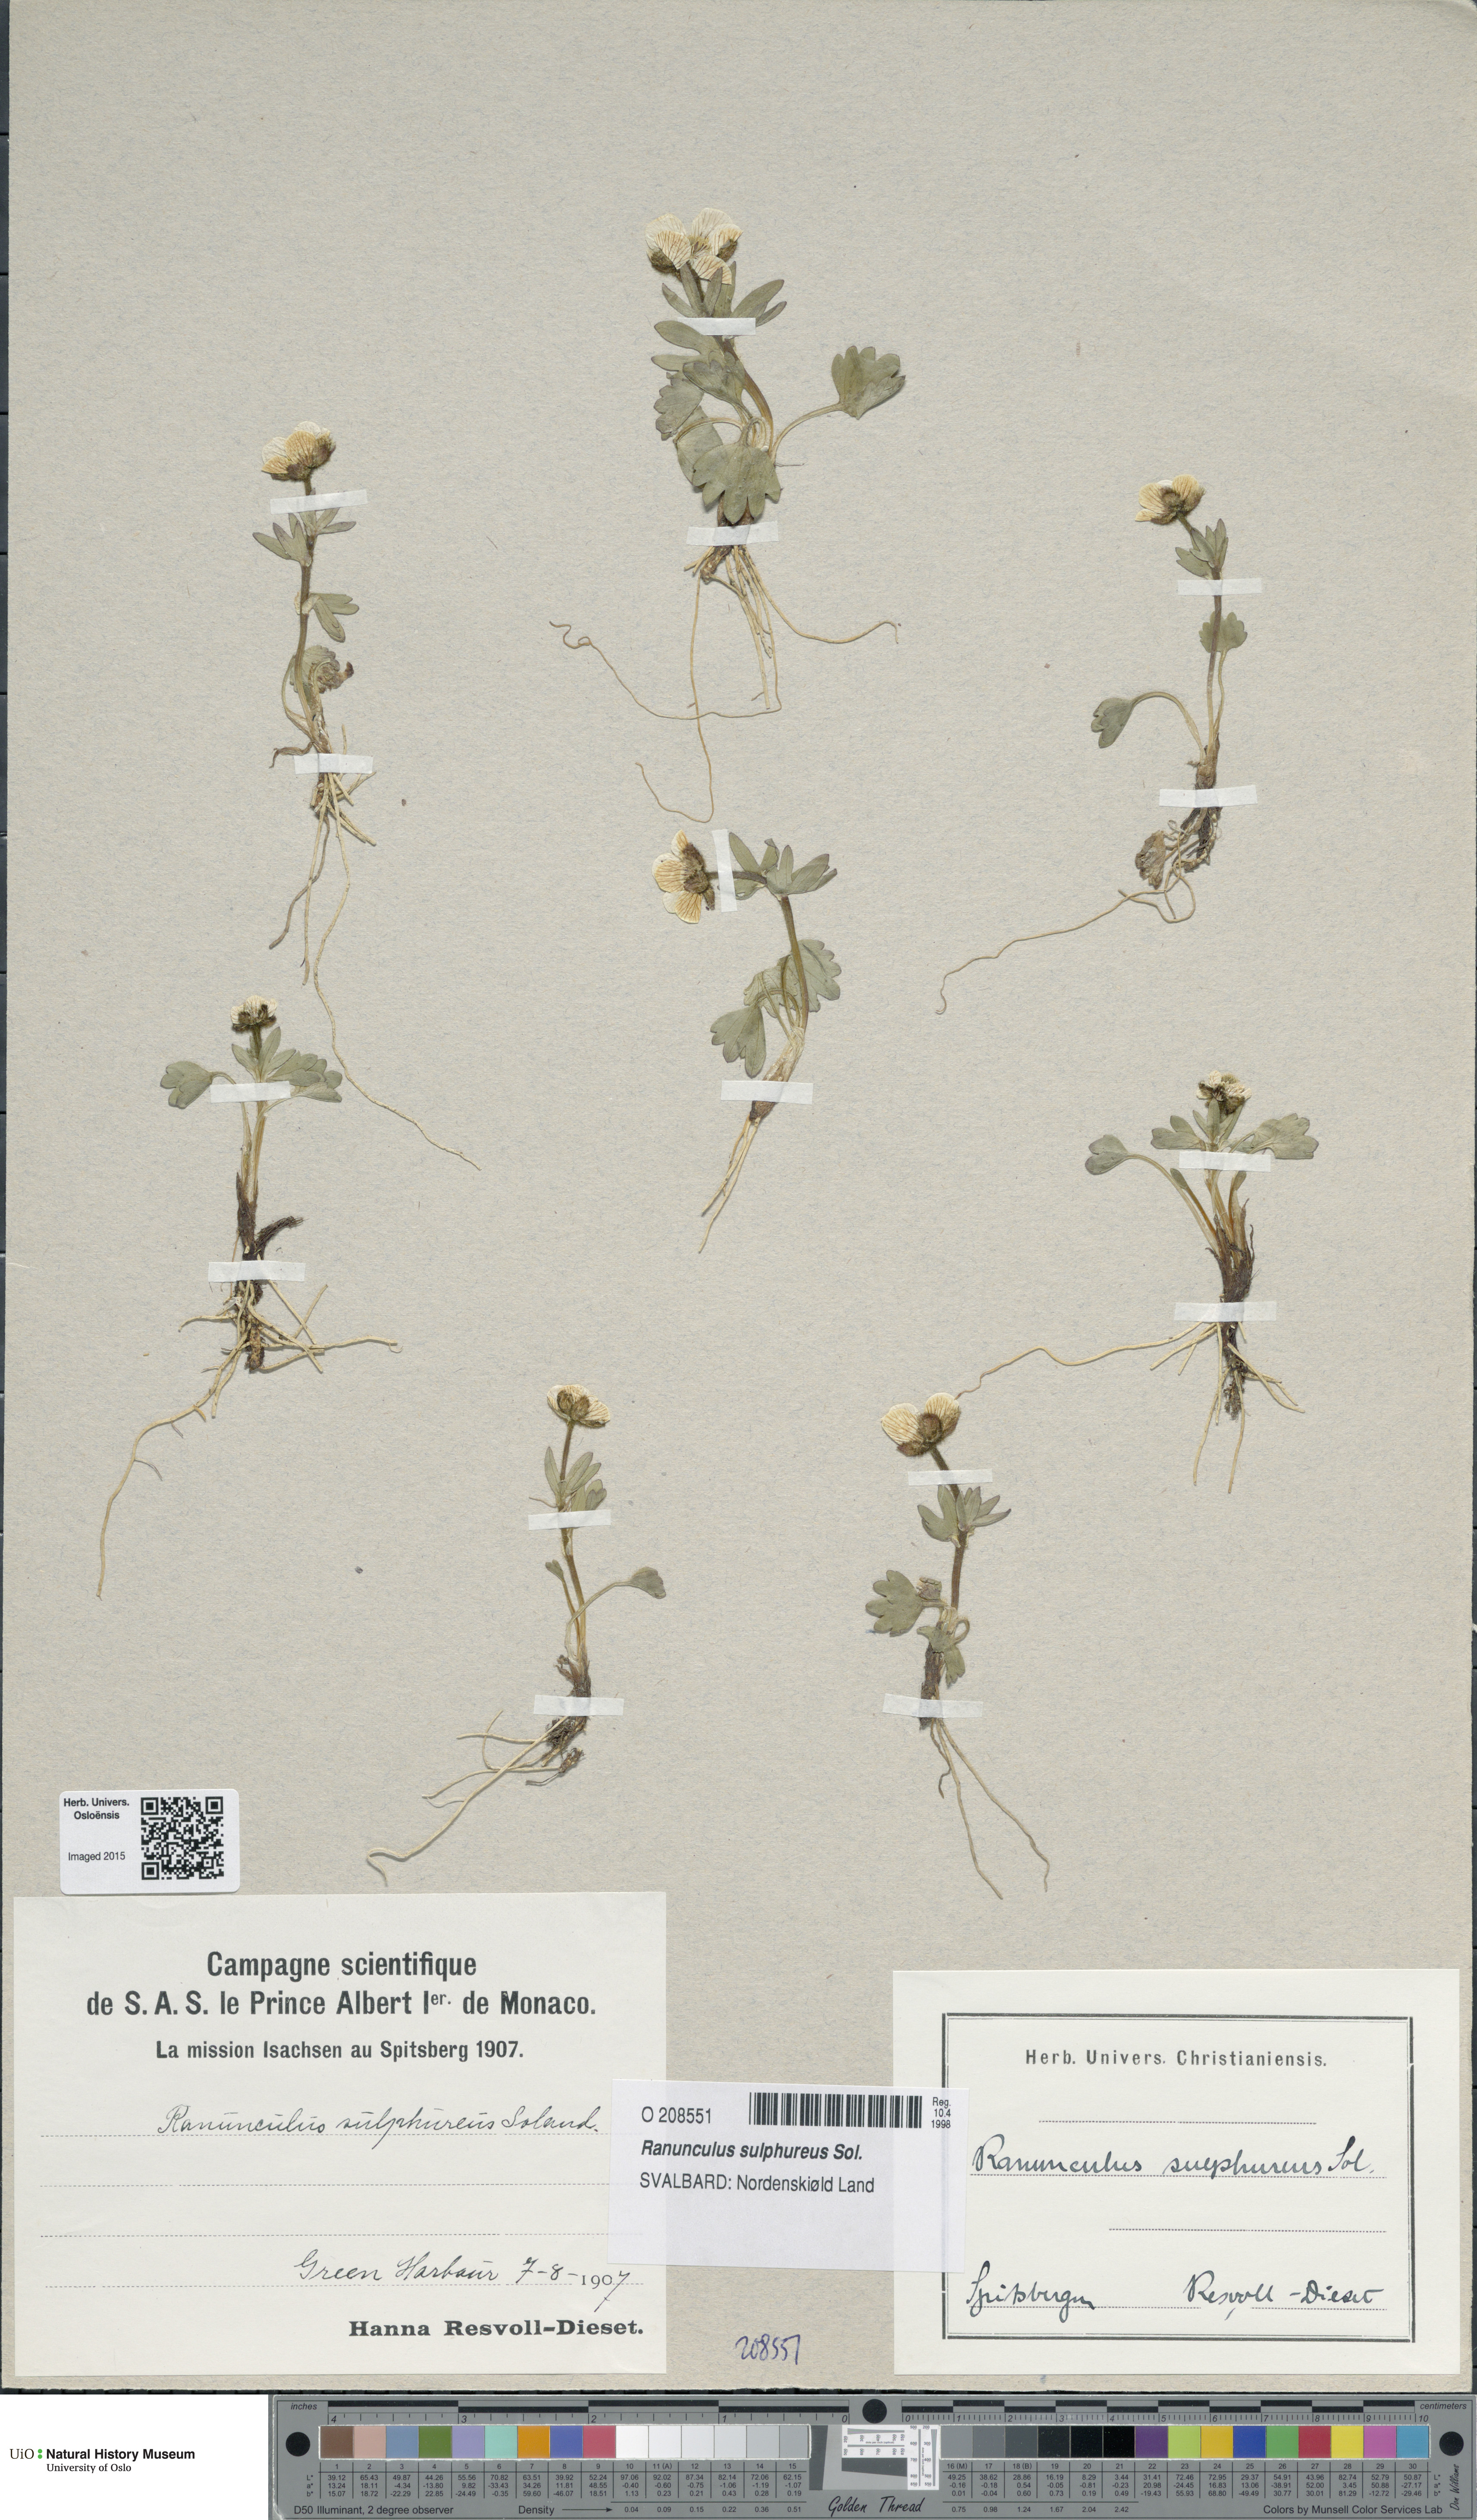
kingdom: Plantae
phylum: Tracheophyta
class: Magnoliopsida
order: Ranunculales
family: Ranunculaceae
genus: Ranunculus
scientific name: Ranunculus sulphureus
